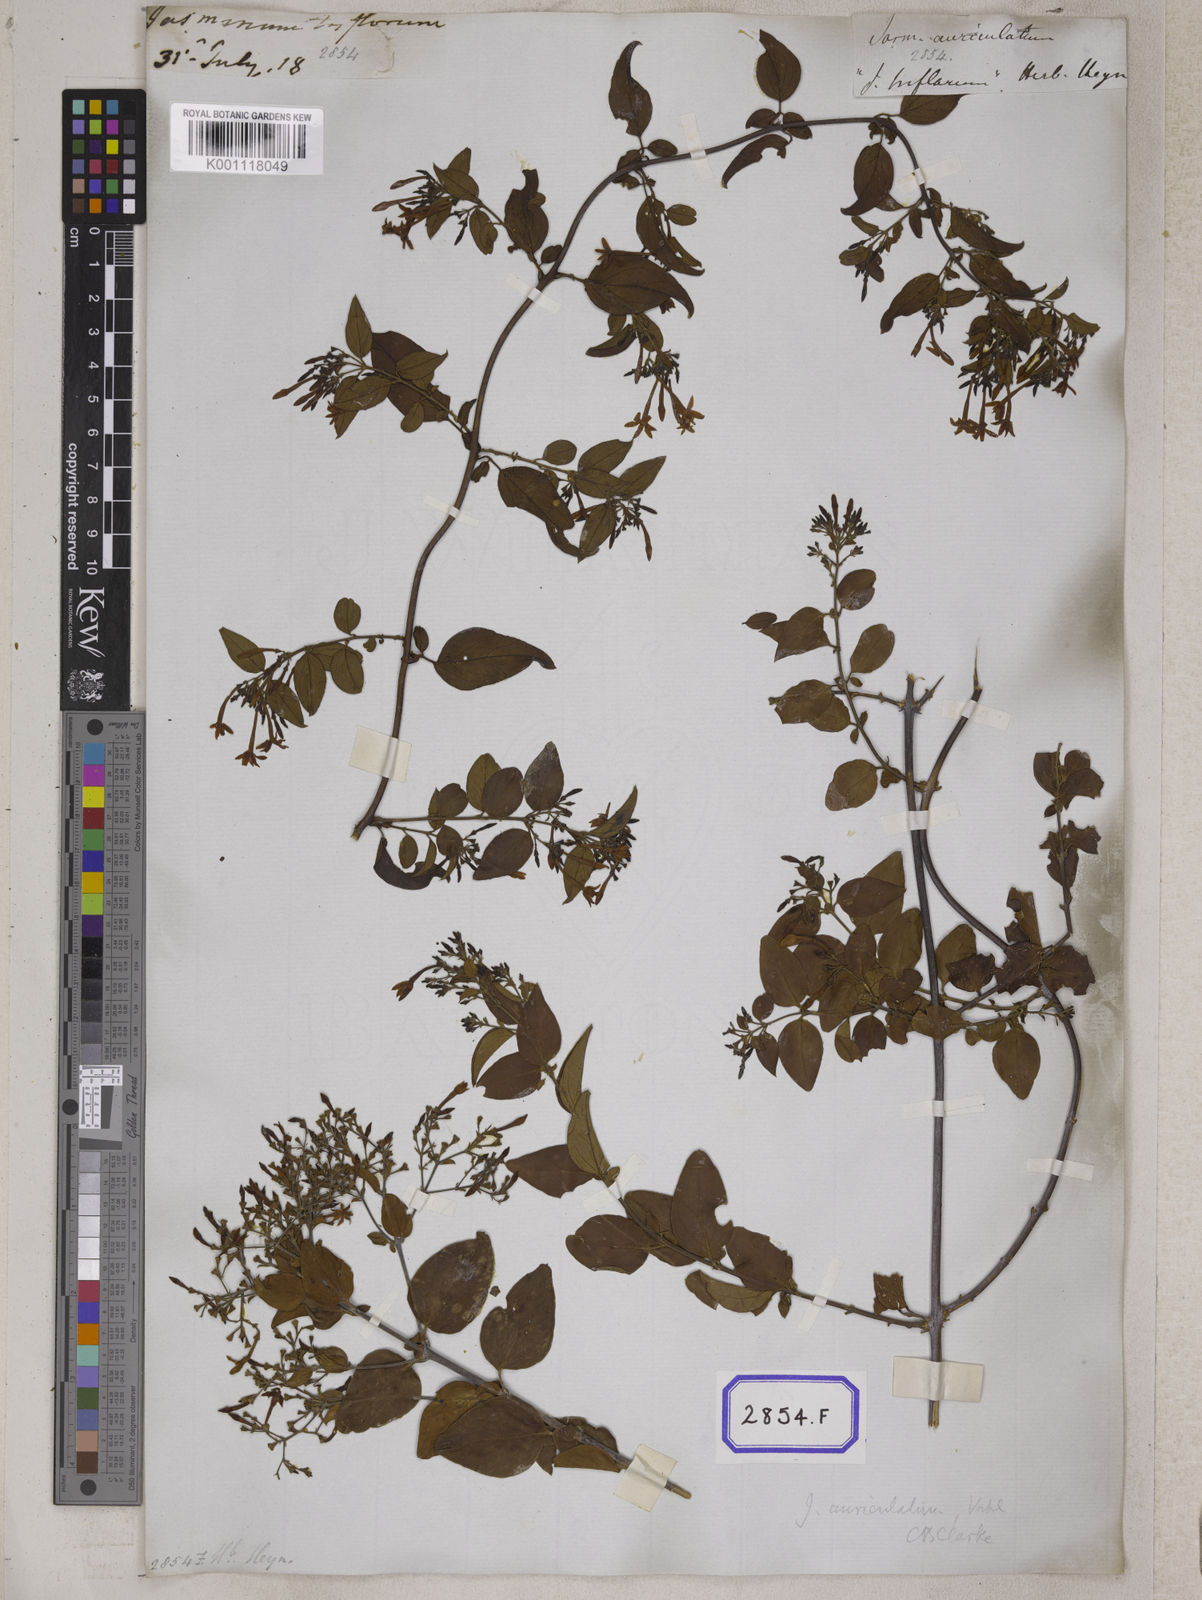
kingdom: Plantae
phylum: Tracheophyta
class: Magnoliopsida
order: Lamiales
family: Oleaceae
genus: Jasminum
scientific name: Jasminum auriculatum
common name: Needle-flower jasmine
